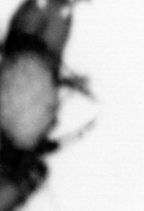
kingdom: Animalia
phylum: Annelida
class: Polychaeta
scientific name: Polychaeta
